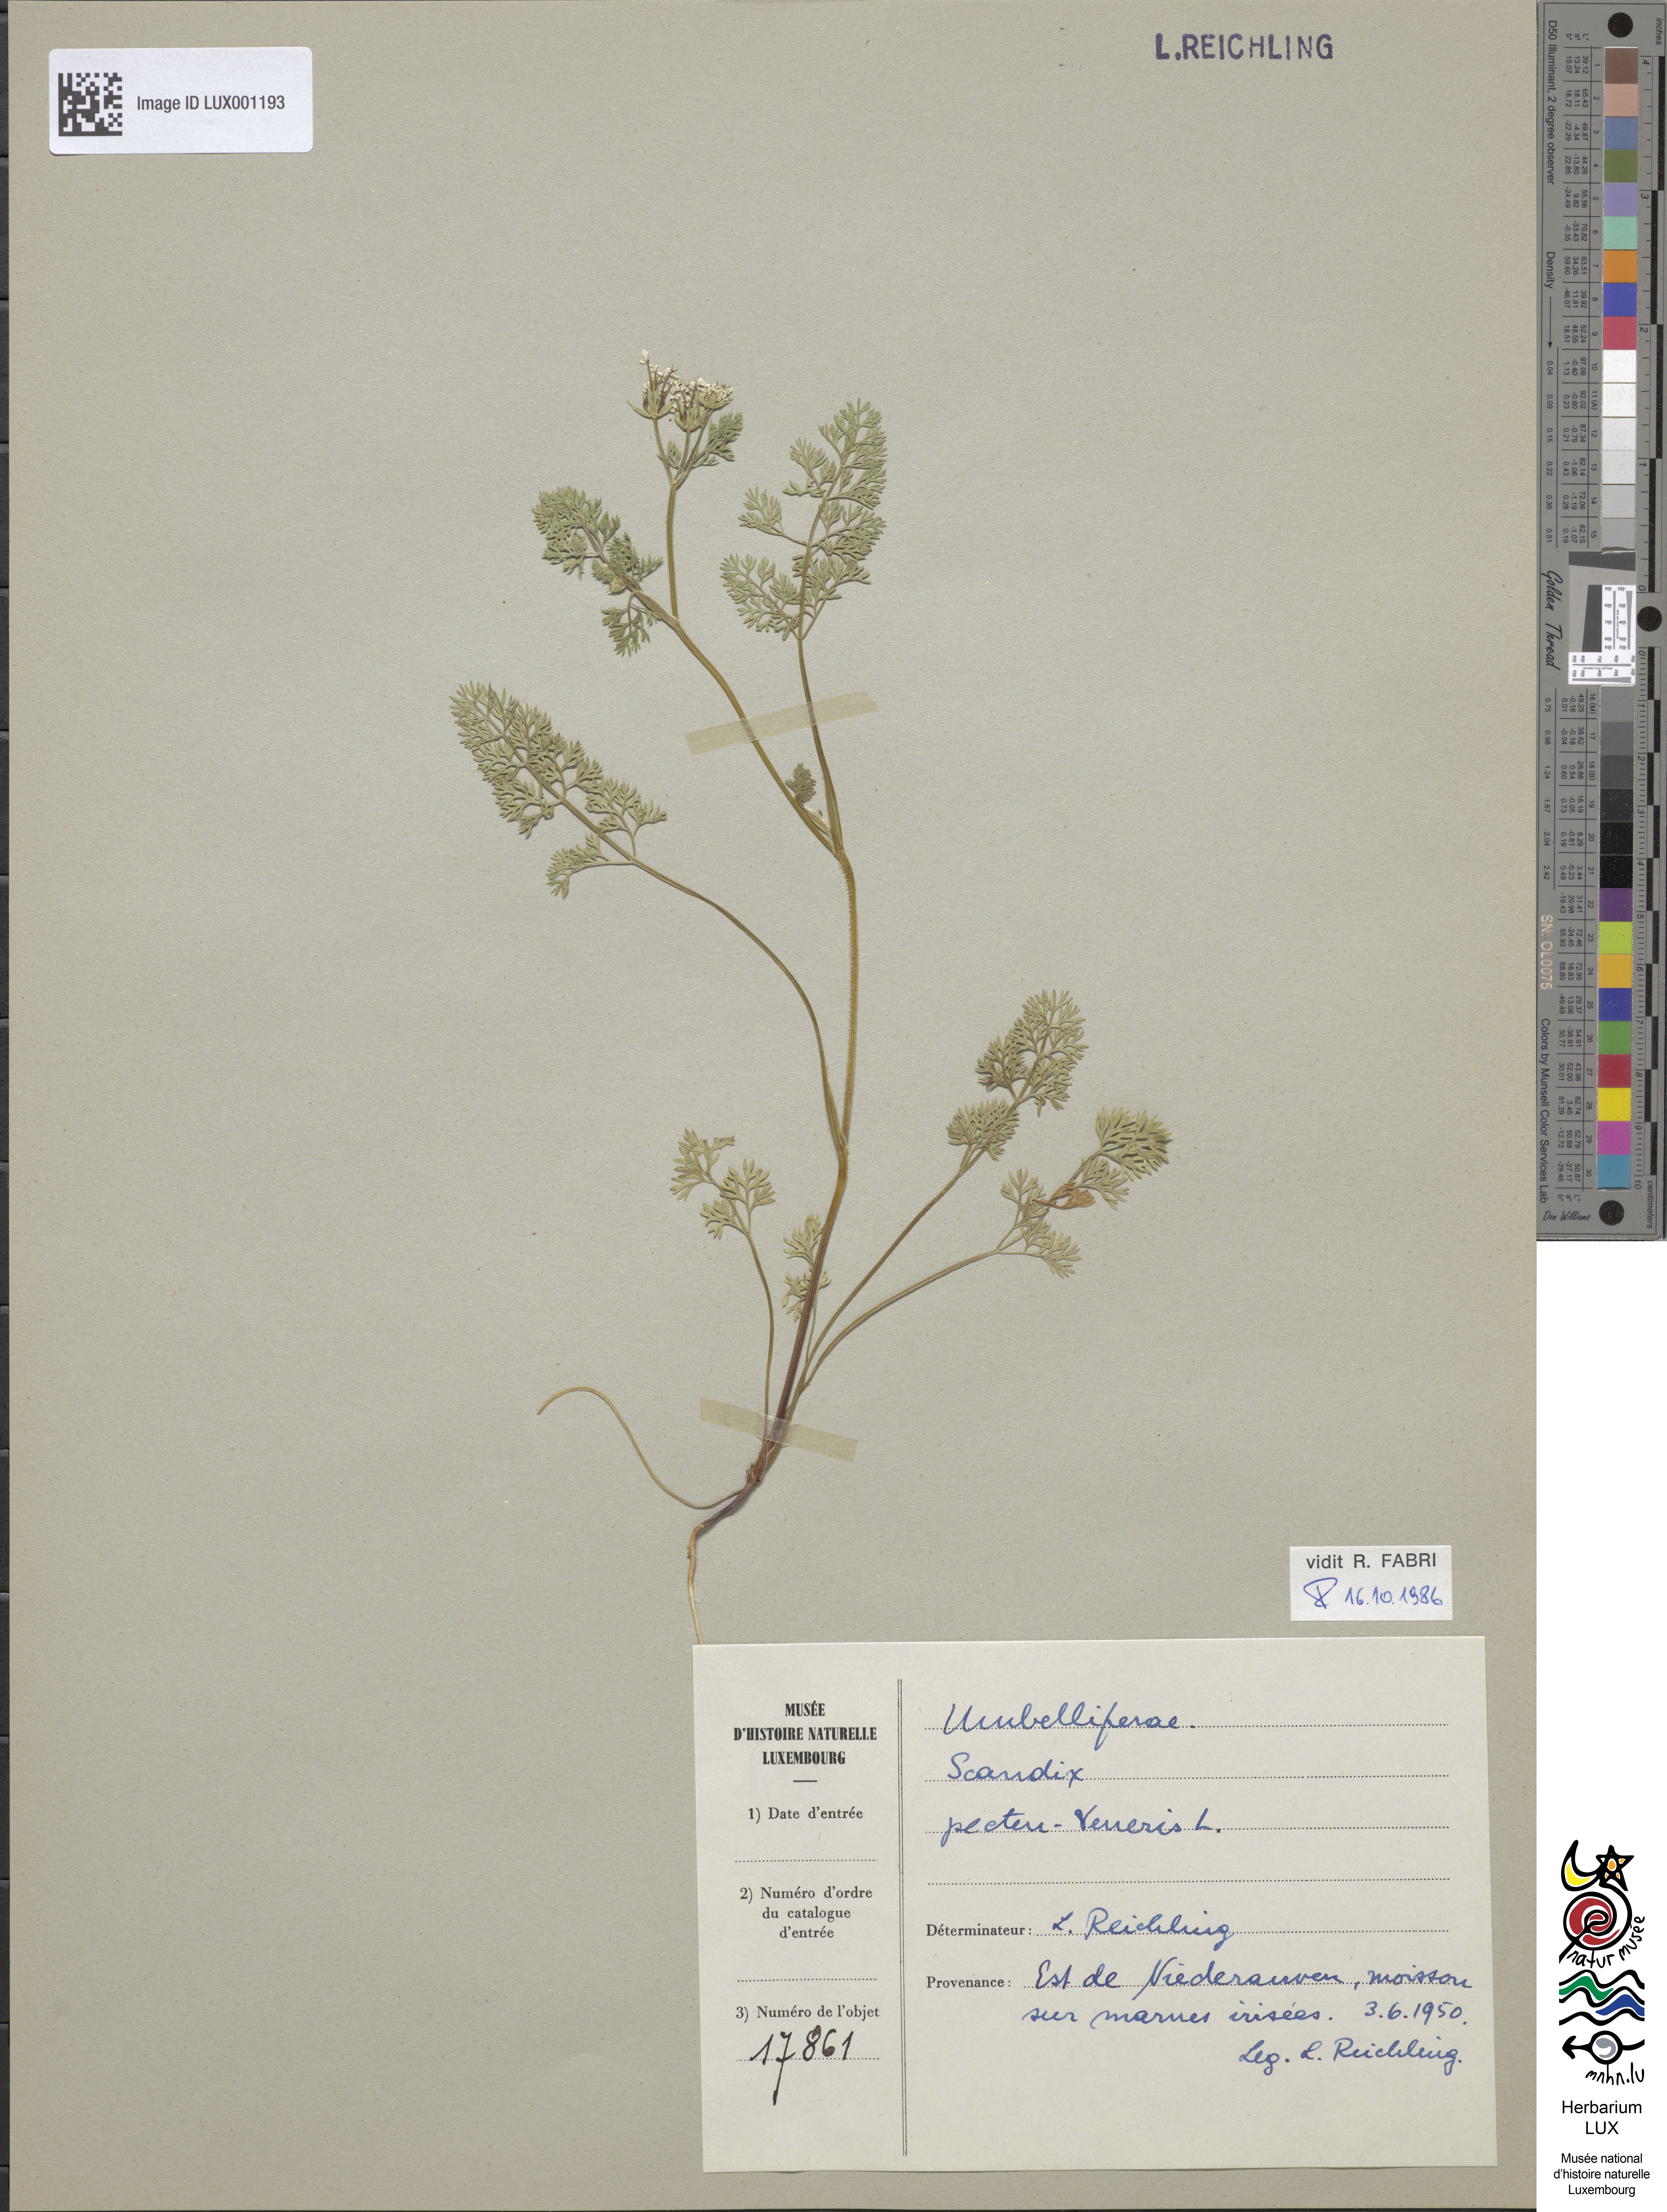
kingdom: Plantae
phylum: Tracheophyta
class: Magnoliopsida
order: Apiales
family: Apiaceae
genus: Scandix
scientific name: Scandix pecten-veneris
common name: Shepherd's-needle
